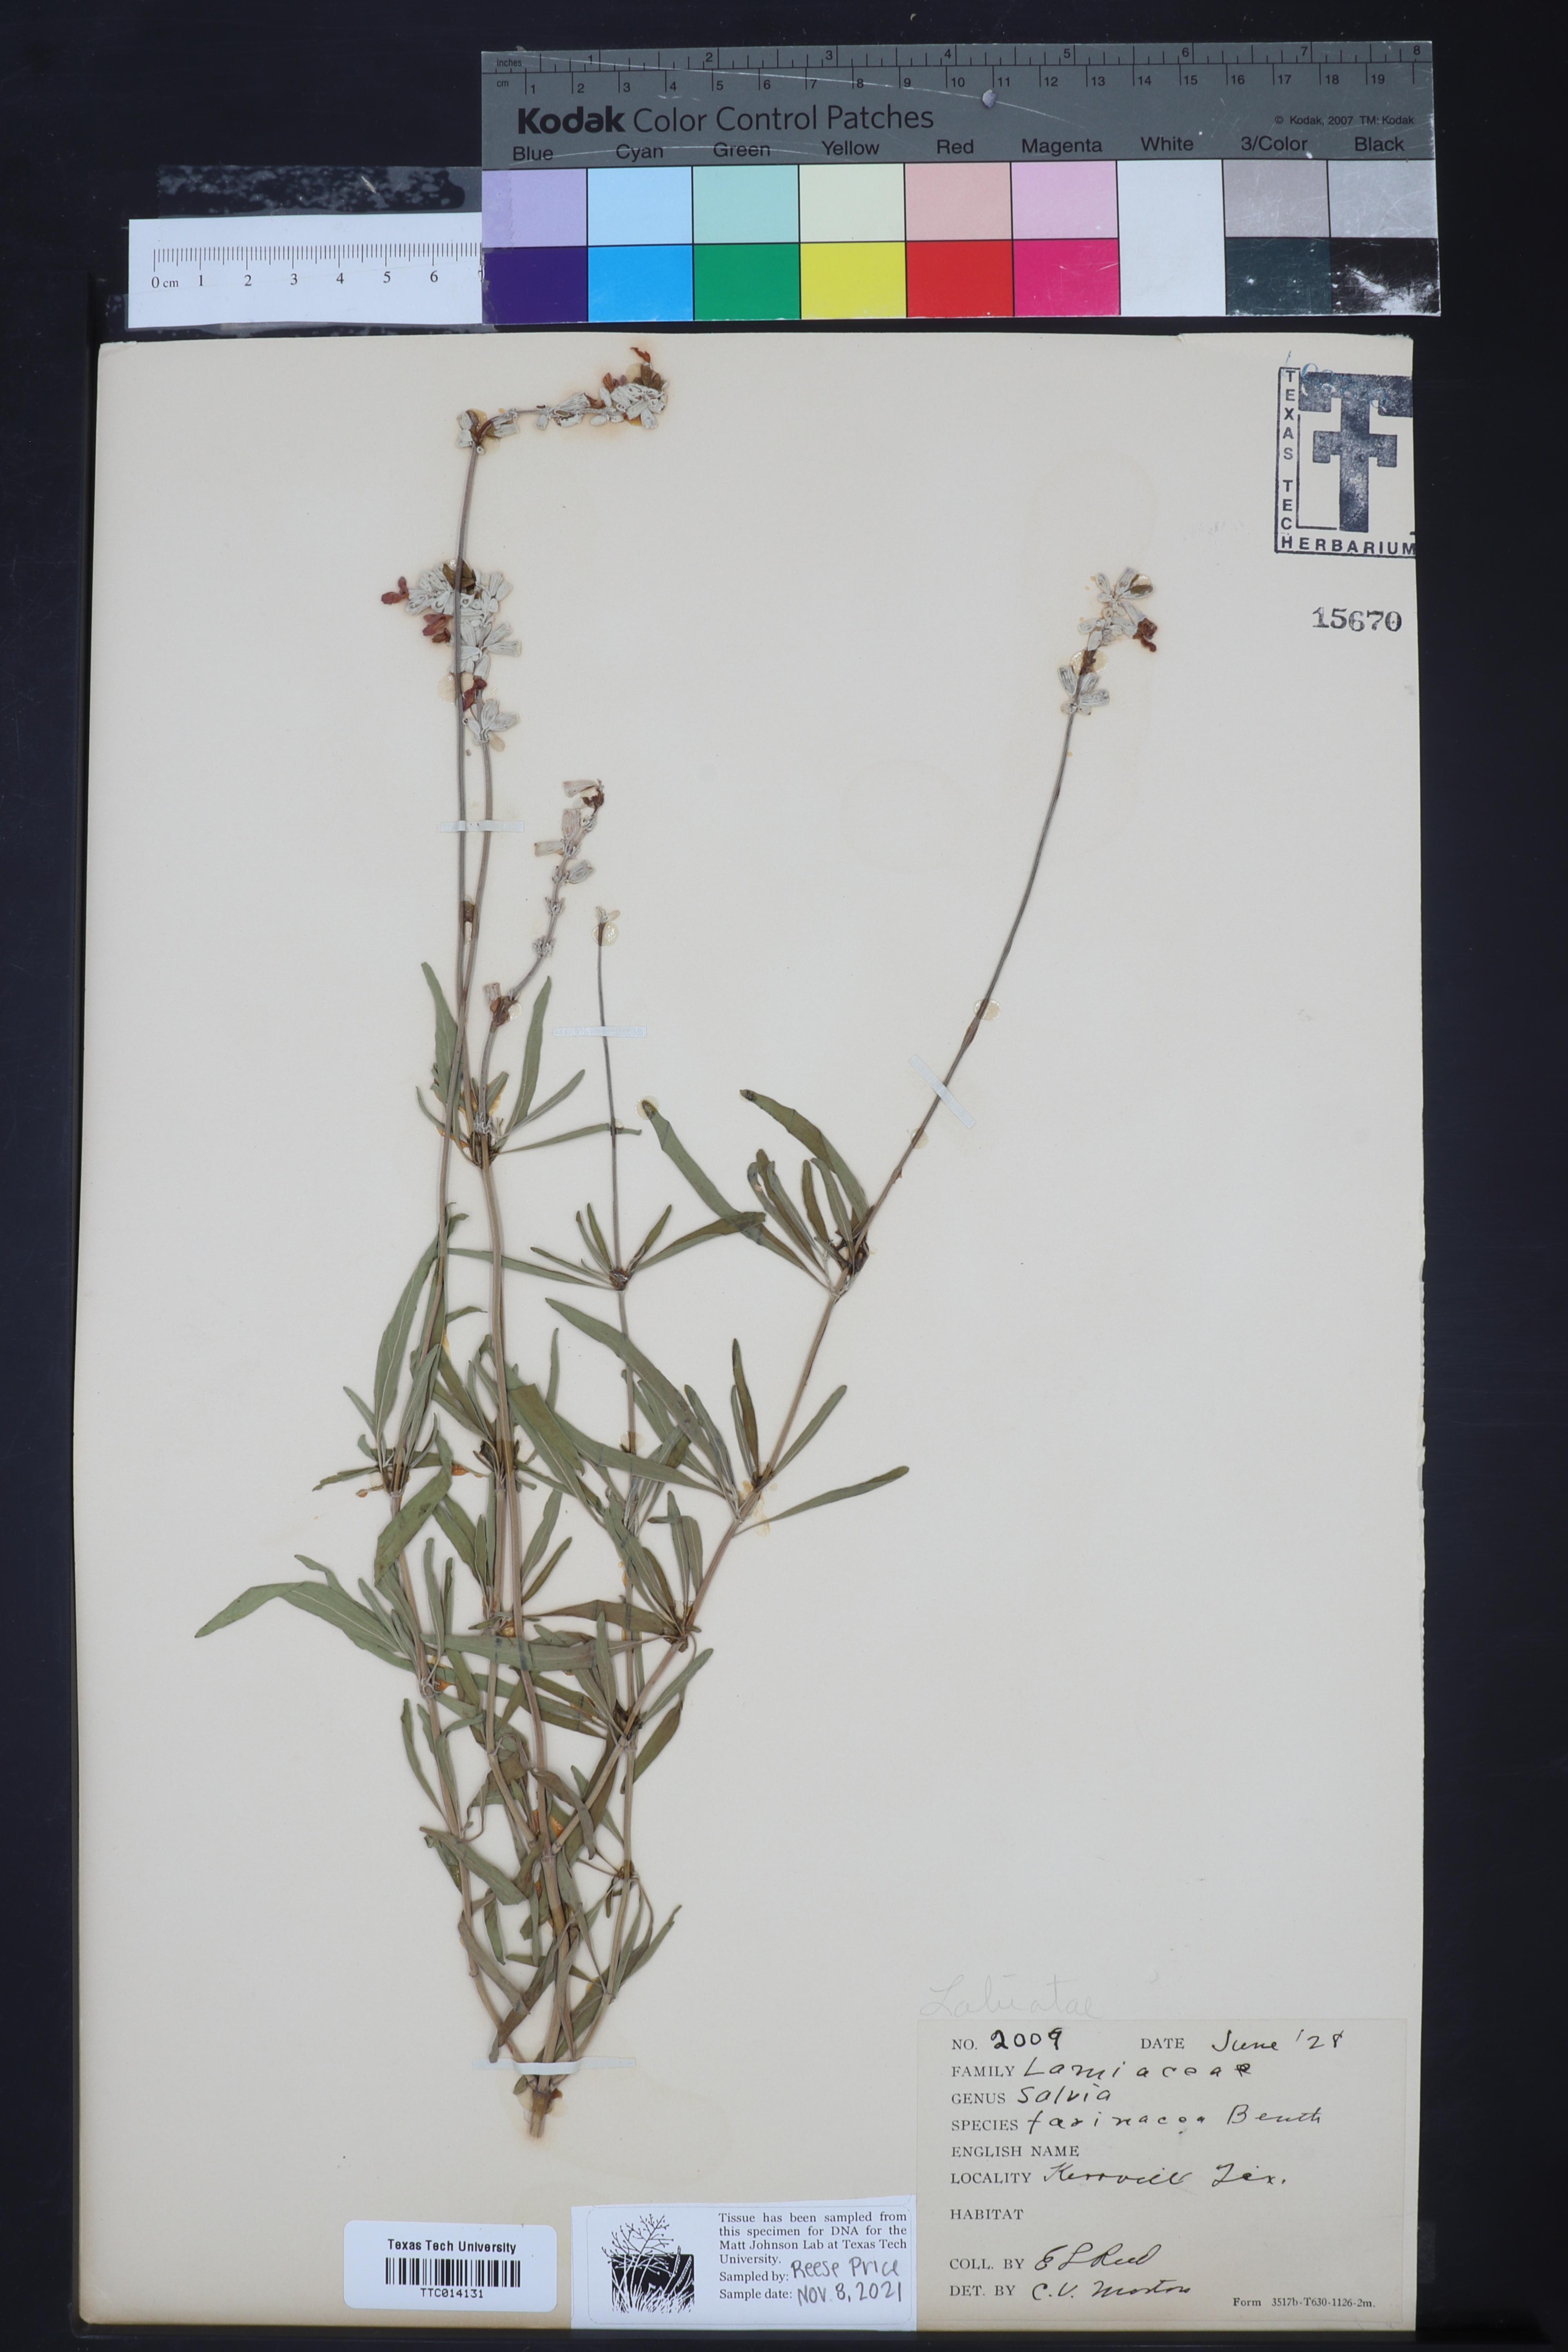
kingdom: Plantae
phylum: Tracheophyta
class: Magnoliopsida
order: Lamiales
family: Lamiaceae
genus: Salvia
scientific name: Salvia farinacea
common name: Mealy sage
